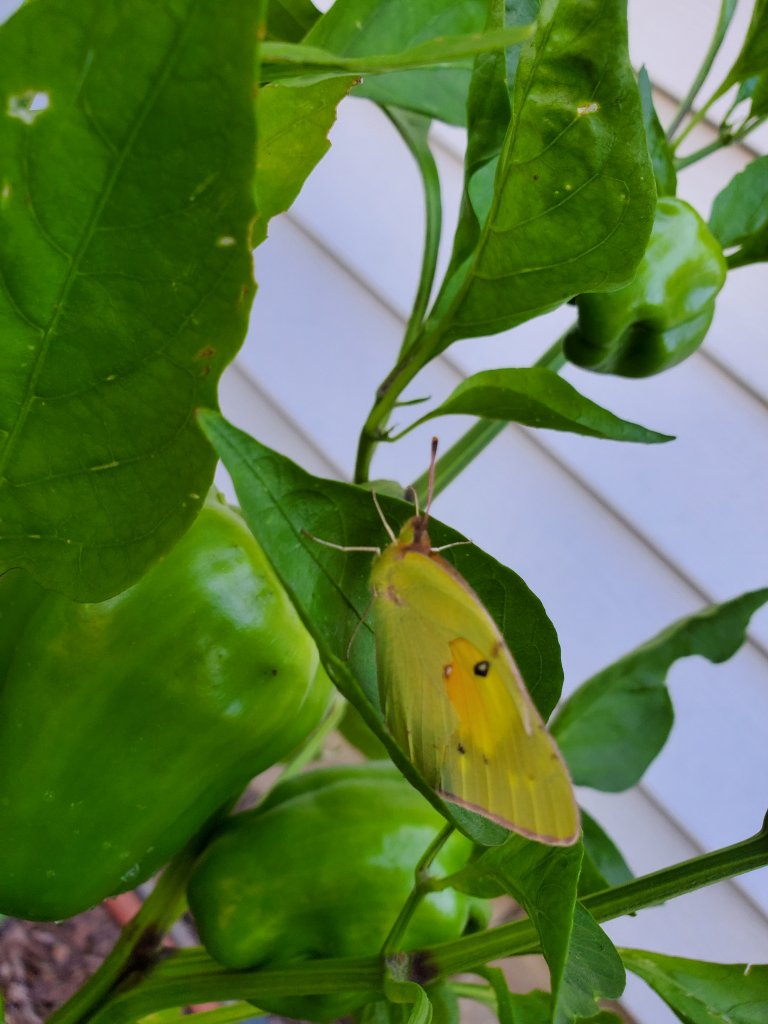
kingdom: Animalia
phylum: Arthropoda
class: Insecta
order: Lepidoptera
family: Lycaenidae
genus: Callophrys
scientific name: Callophrys affinis
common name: Western Green Hairstreak
